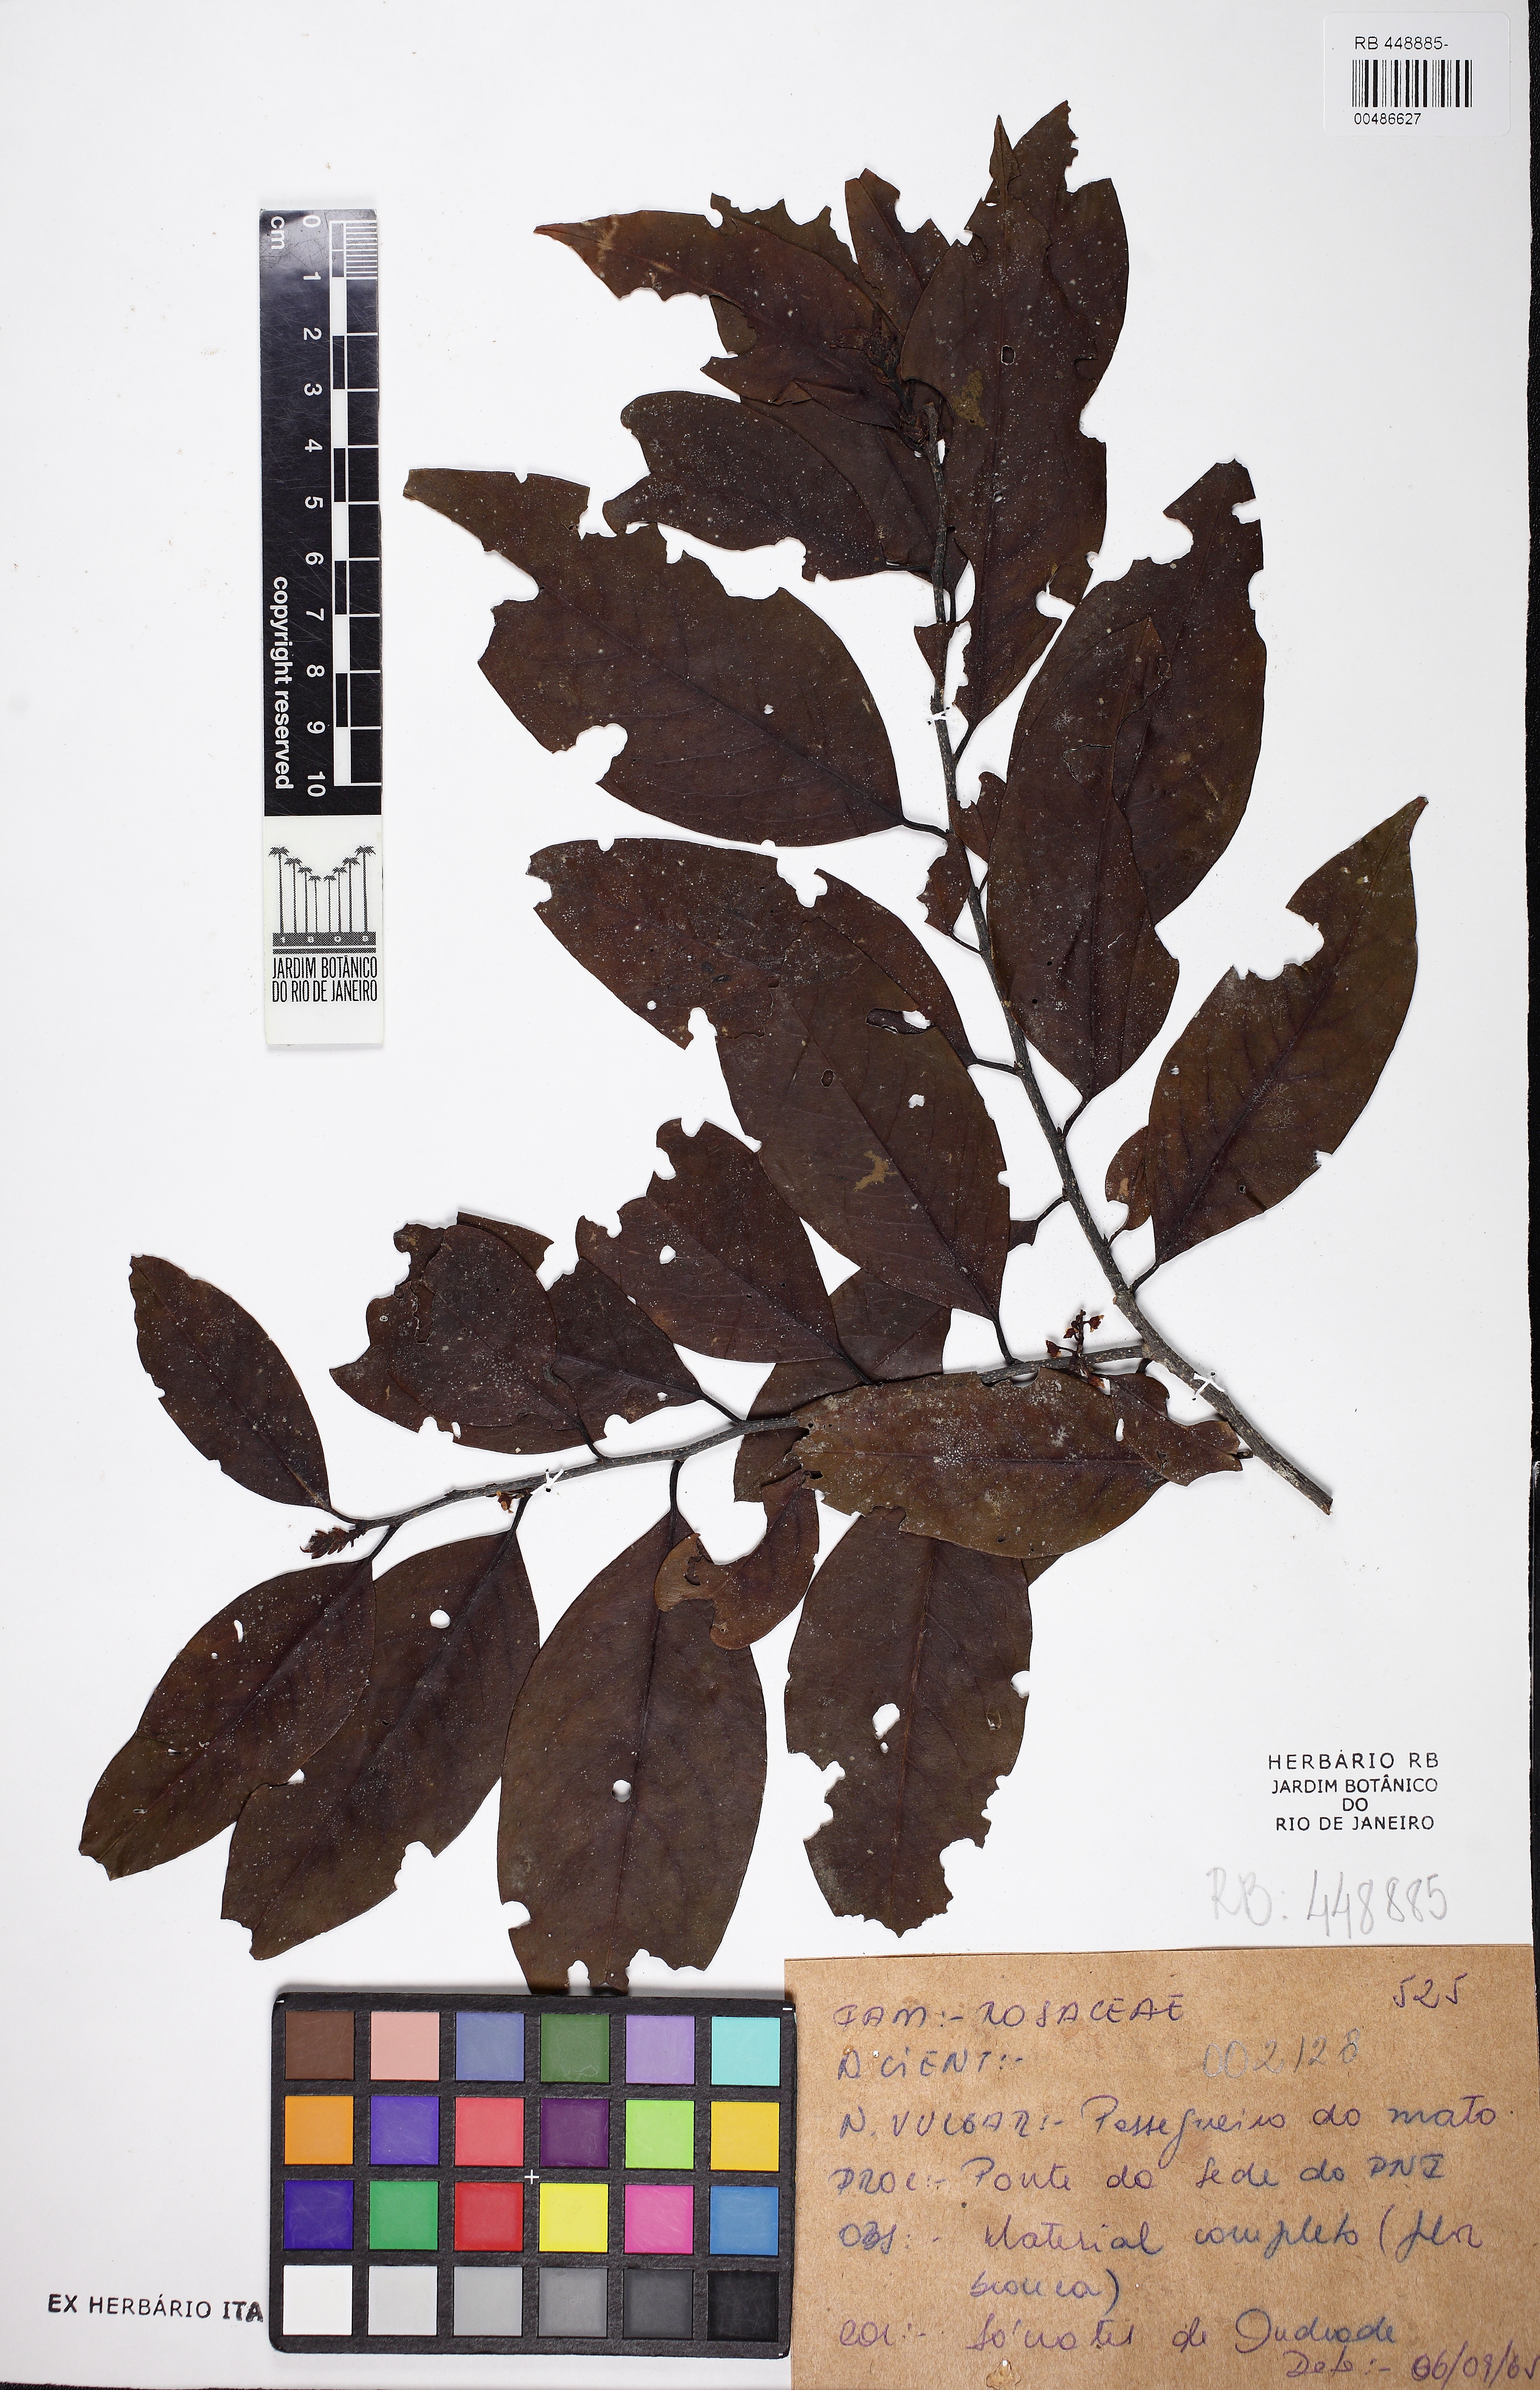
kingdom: Plantae
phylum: Tracheophyta
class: Magnoliopsida
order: Gentianales
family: Rubiaceae
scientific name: Rubiaceae
